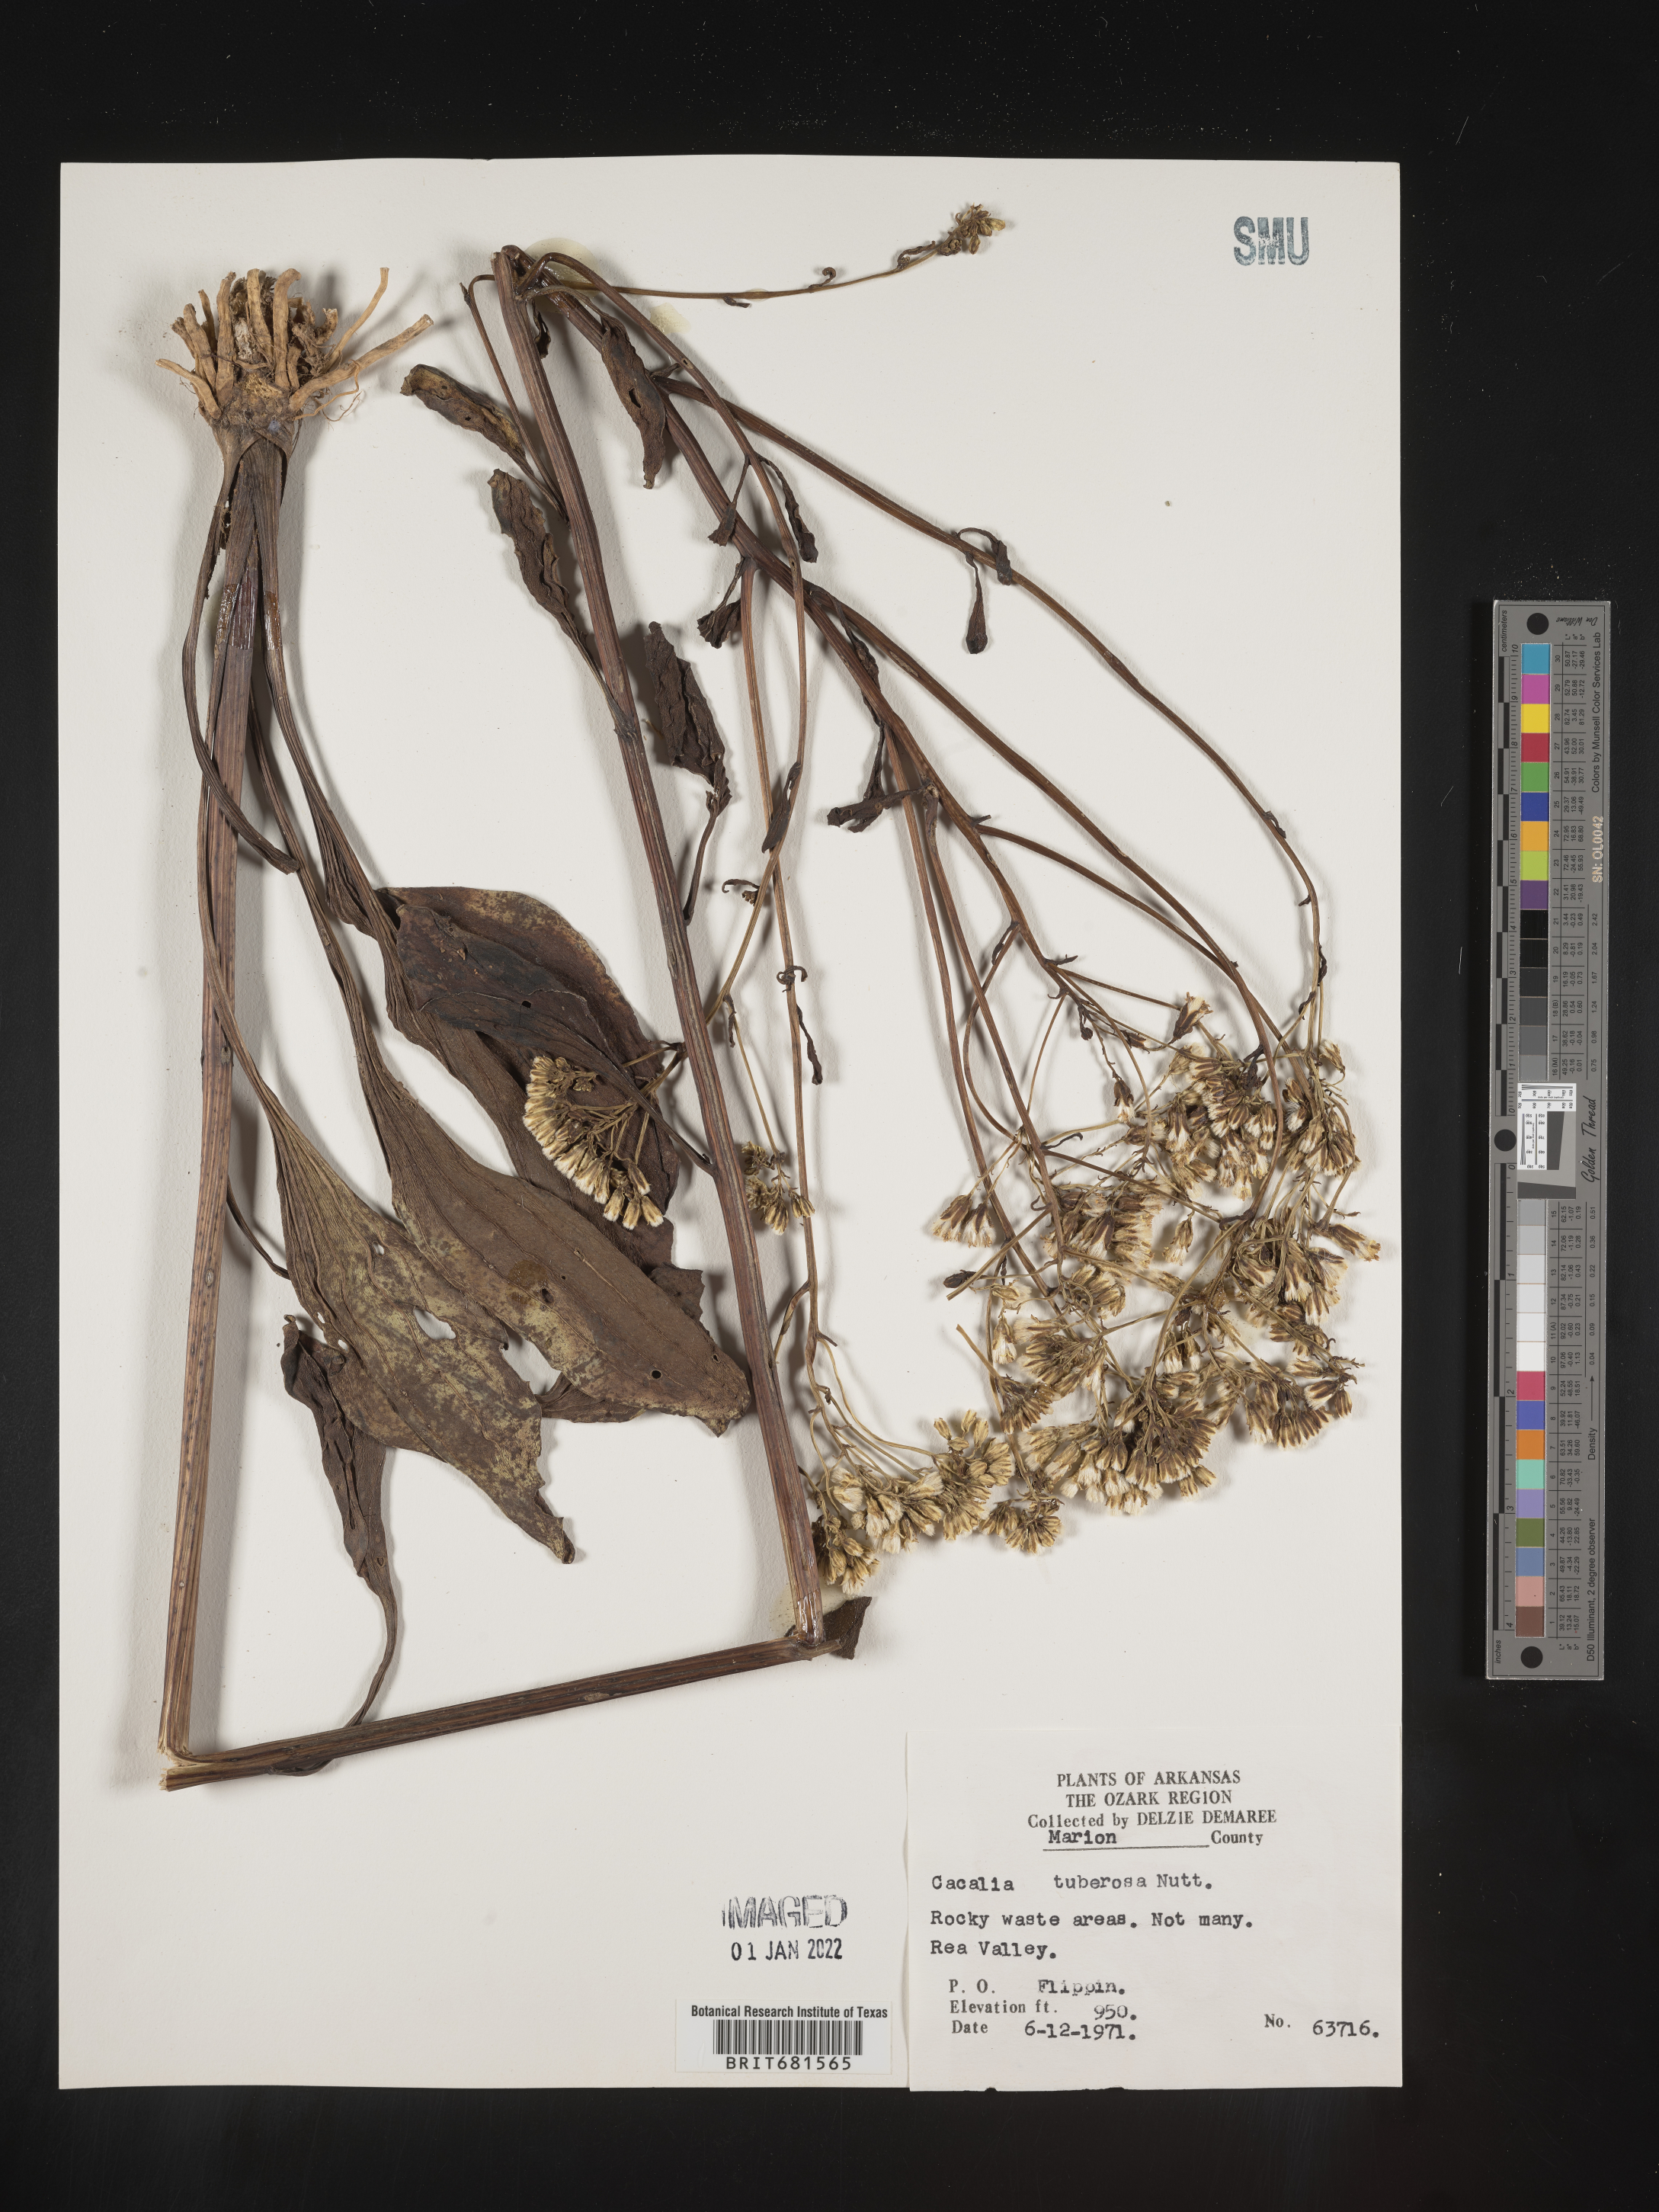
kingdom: Plantae
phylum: Tracheophyta
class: Magnoliopsida
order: Asterales
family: Asteraceae
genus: Arnoglossum
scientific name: Arnoglossum plantagineum
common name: Groove-stemmed indian-plantain
